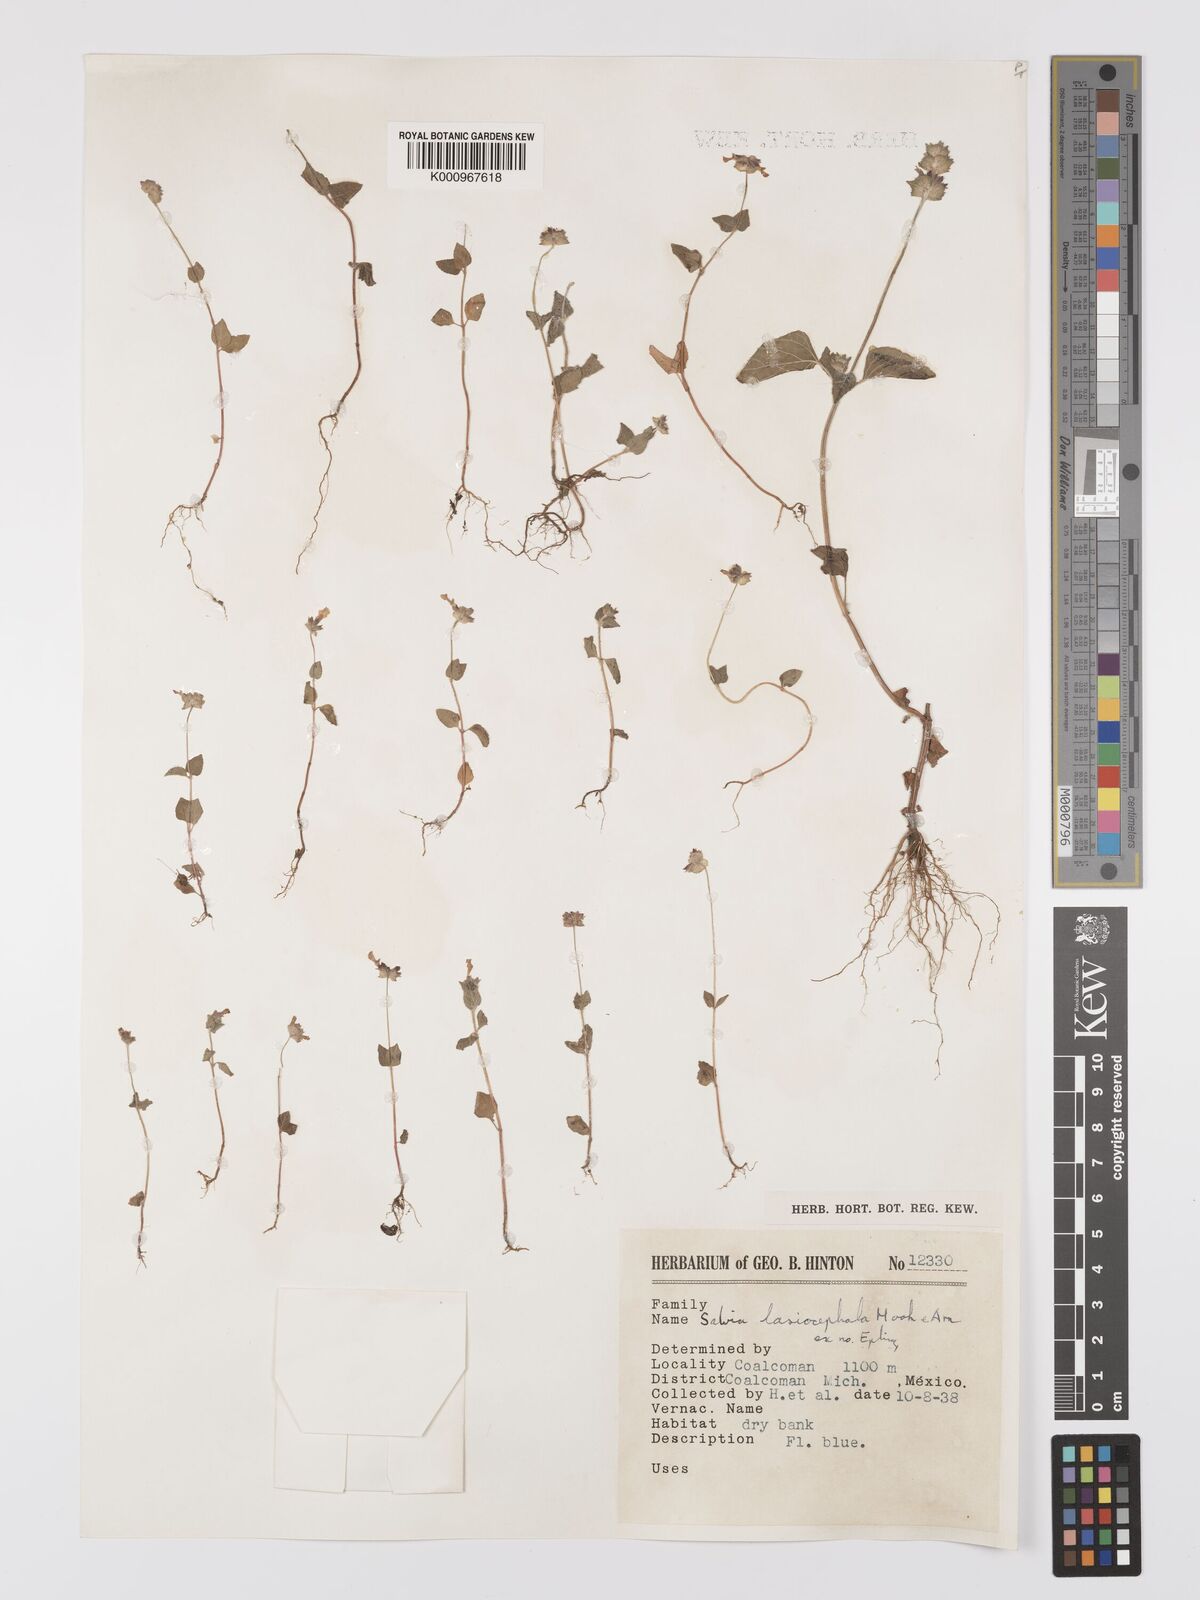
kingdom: Plantae
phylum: Tracheophyta
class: Magnoliopsida
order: Lamiales
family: Lamiaceae
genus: Salvia
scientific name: Salvia lasiocephala
